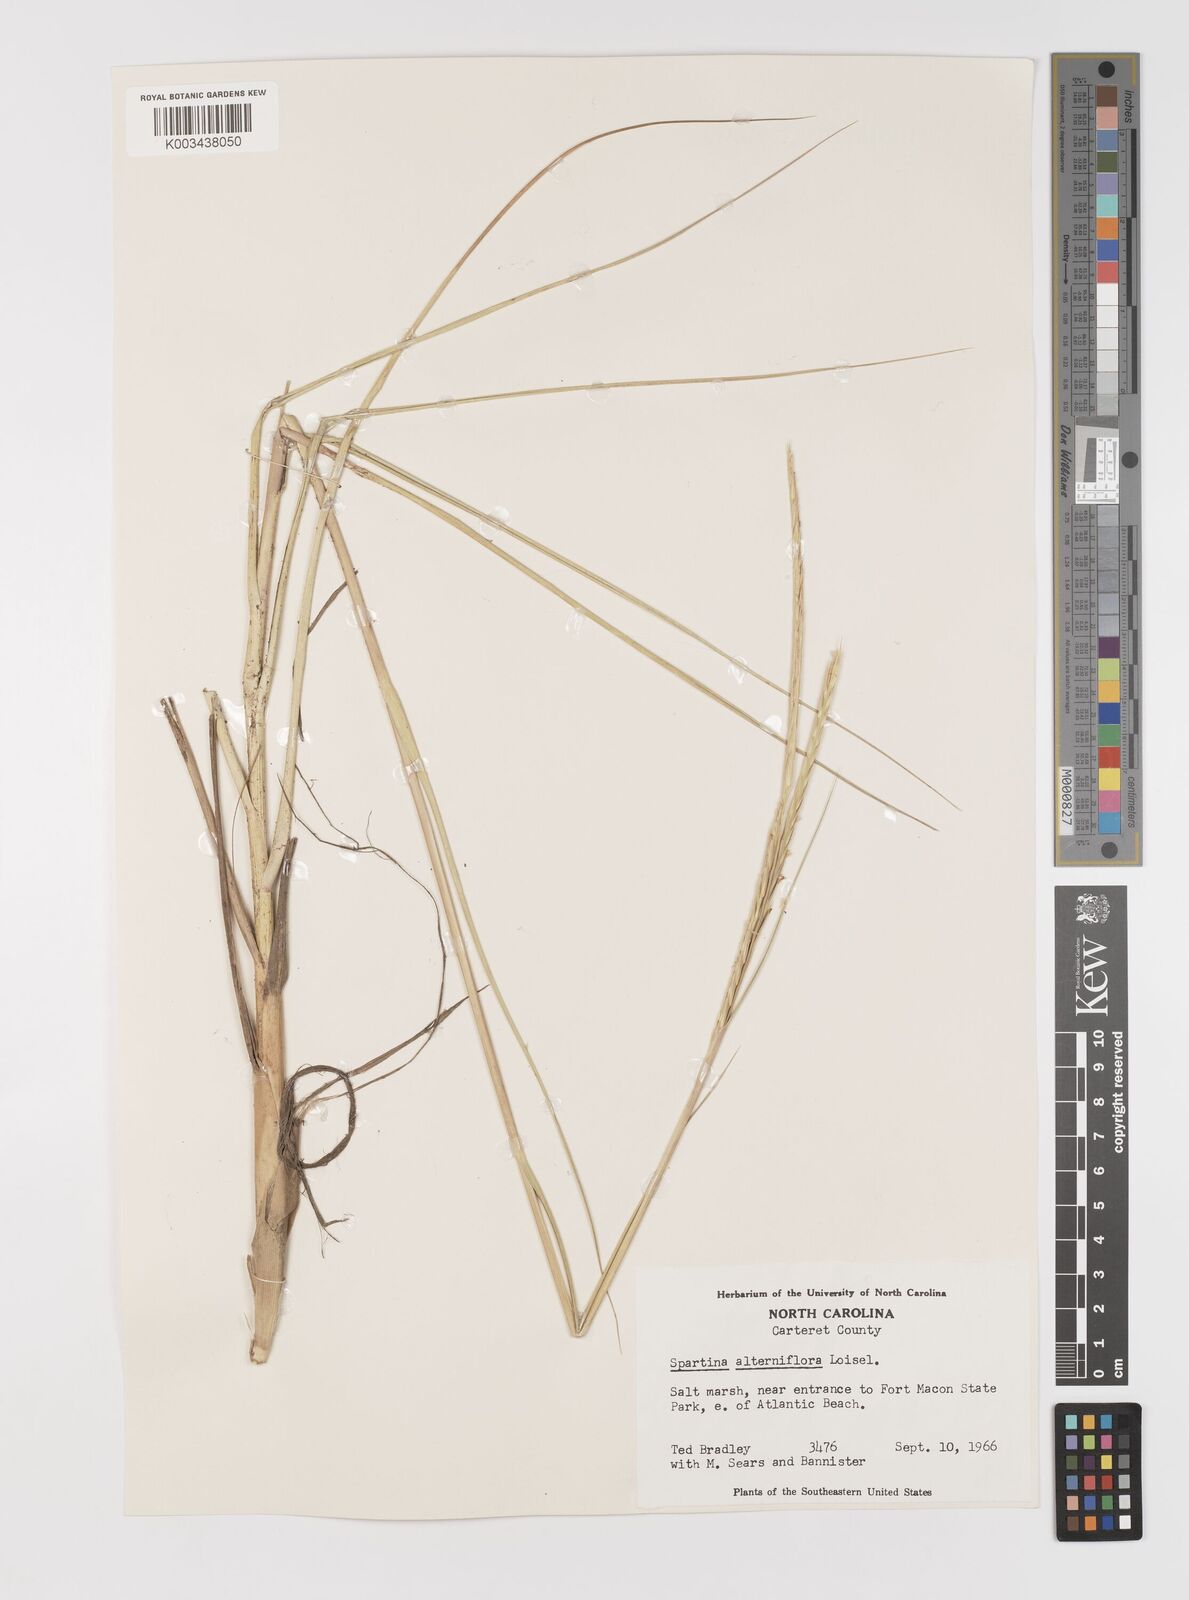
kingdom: Plantae
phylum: Tracheophyta
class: Liliopsida
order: Poales
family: Poaceae
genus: Sporobolus
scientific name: Sporobolus coarctatus
